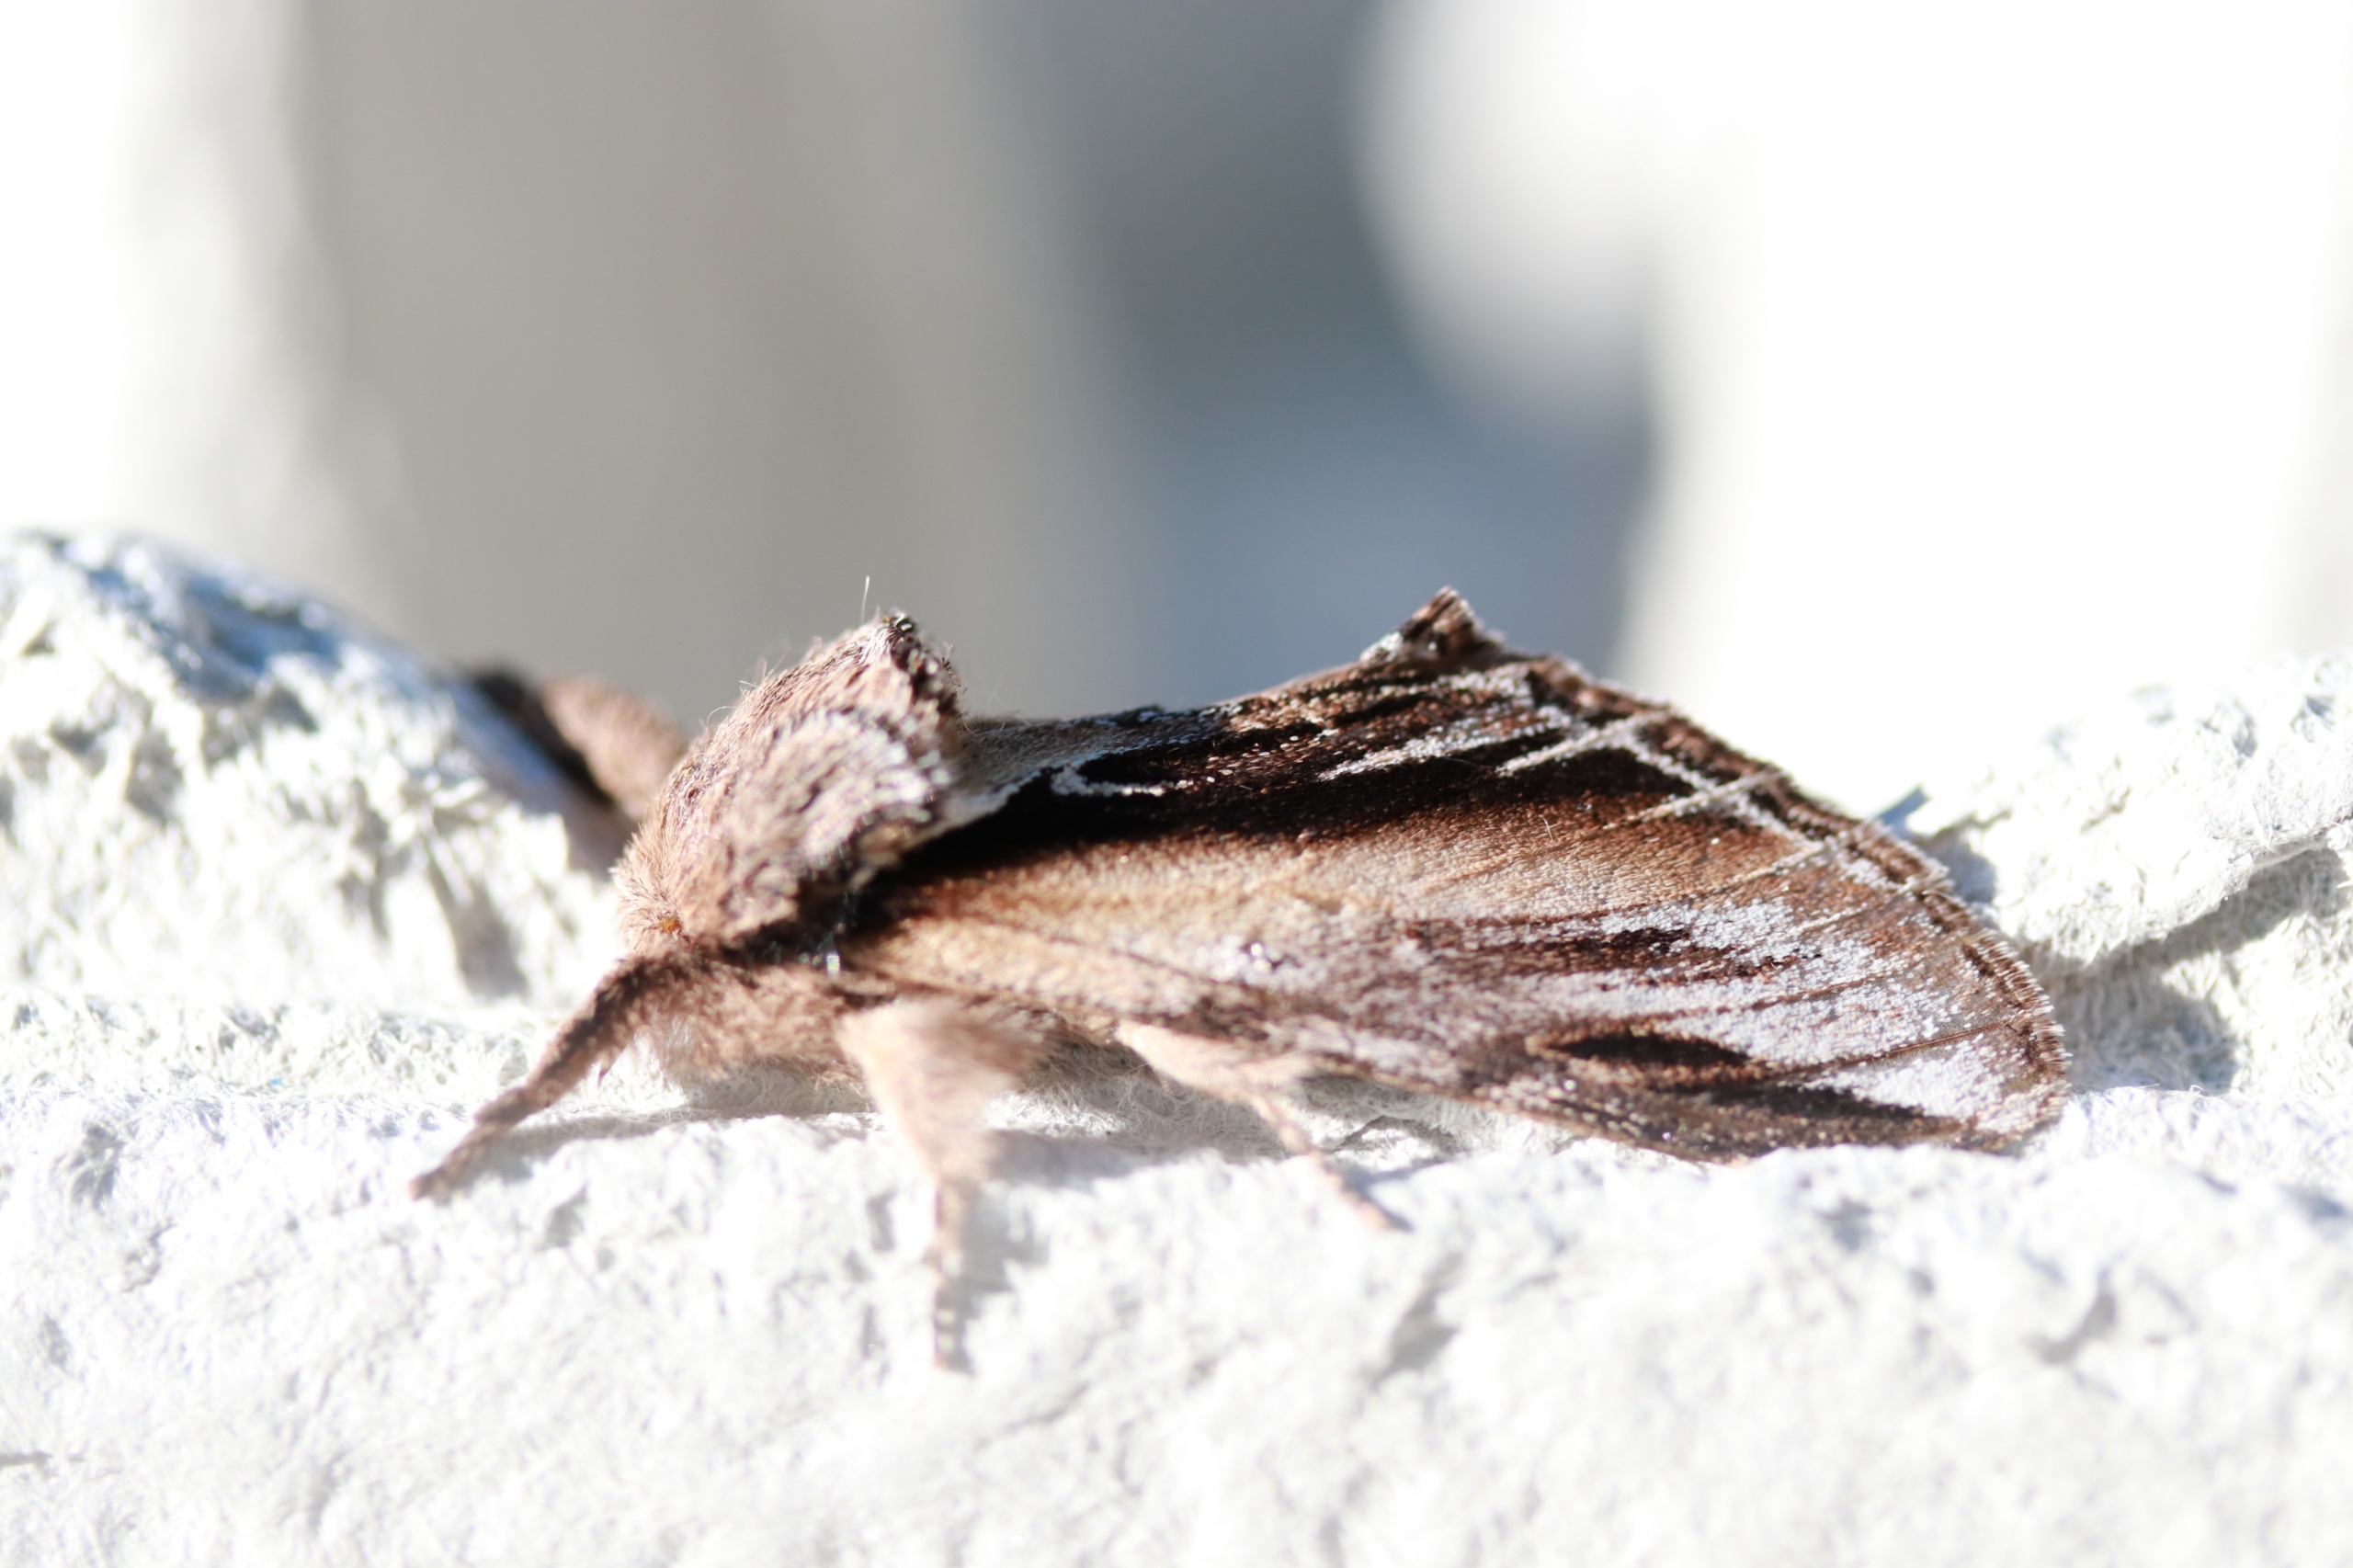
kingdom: Animalia
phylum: Arthropoda
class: Insecta
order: Lepidoptera
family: Notodontidae
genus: Pheosia
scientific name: Pheosia gnoma
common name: Birkeporcelænsspinder
